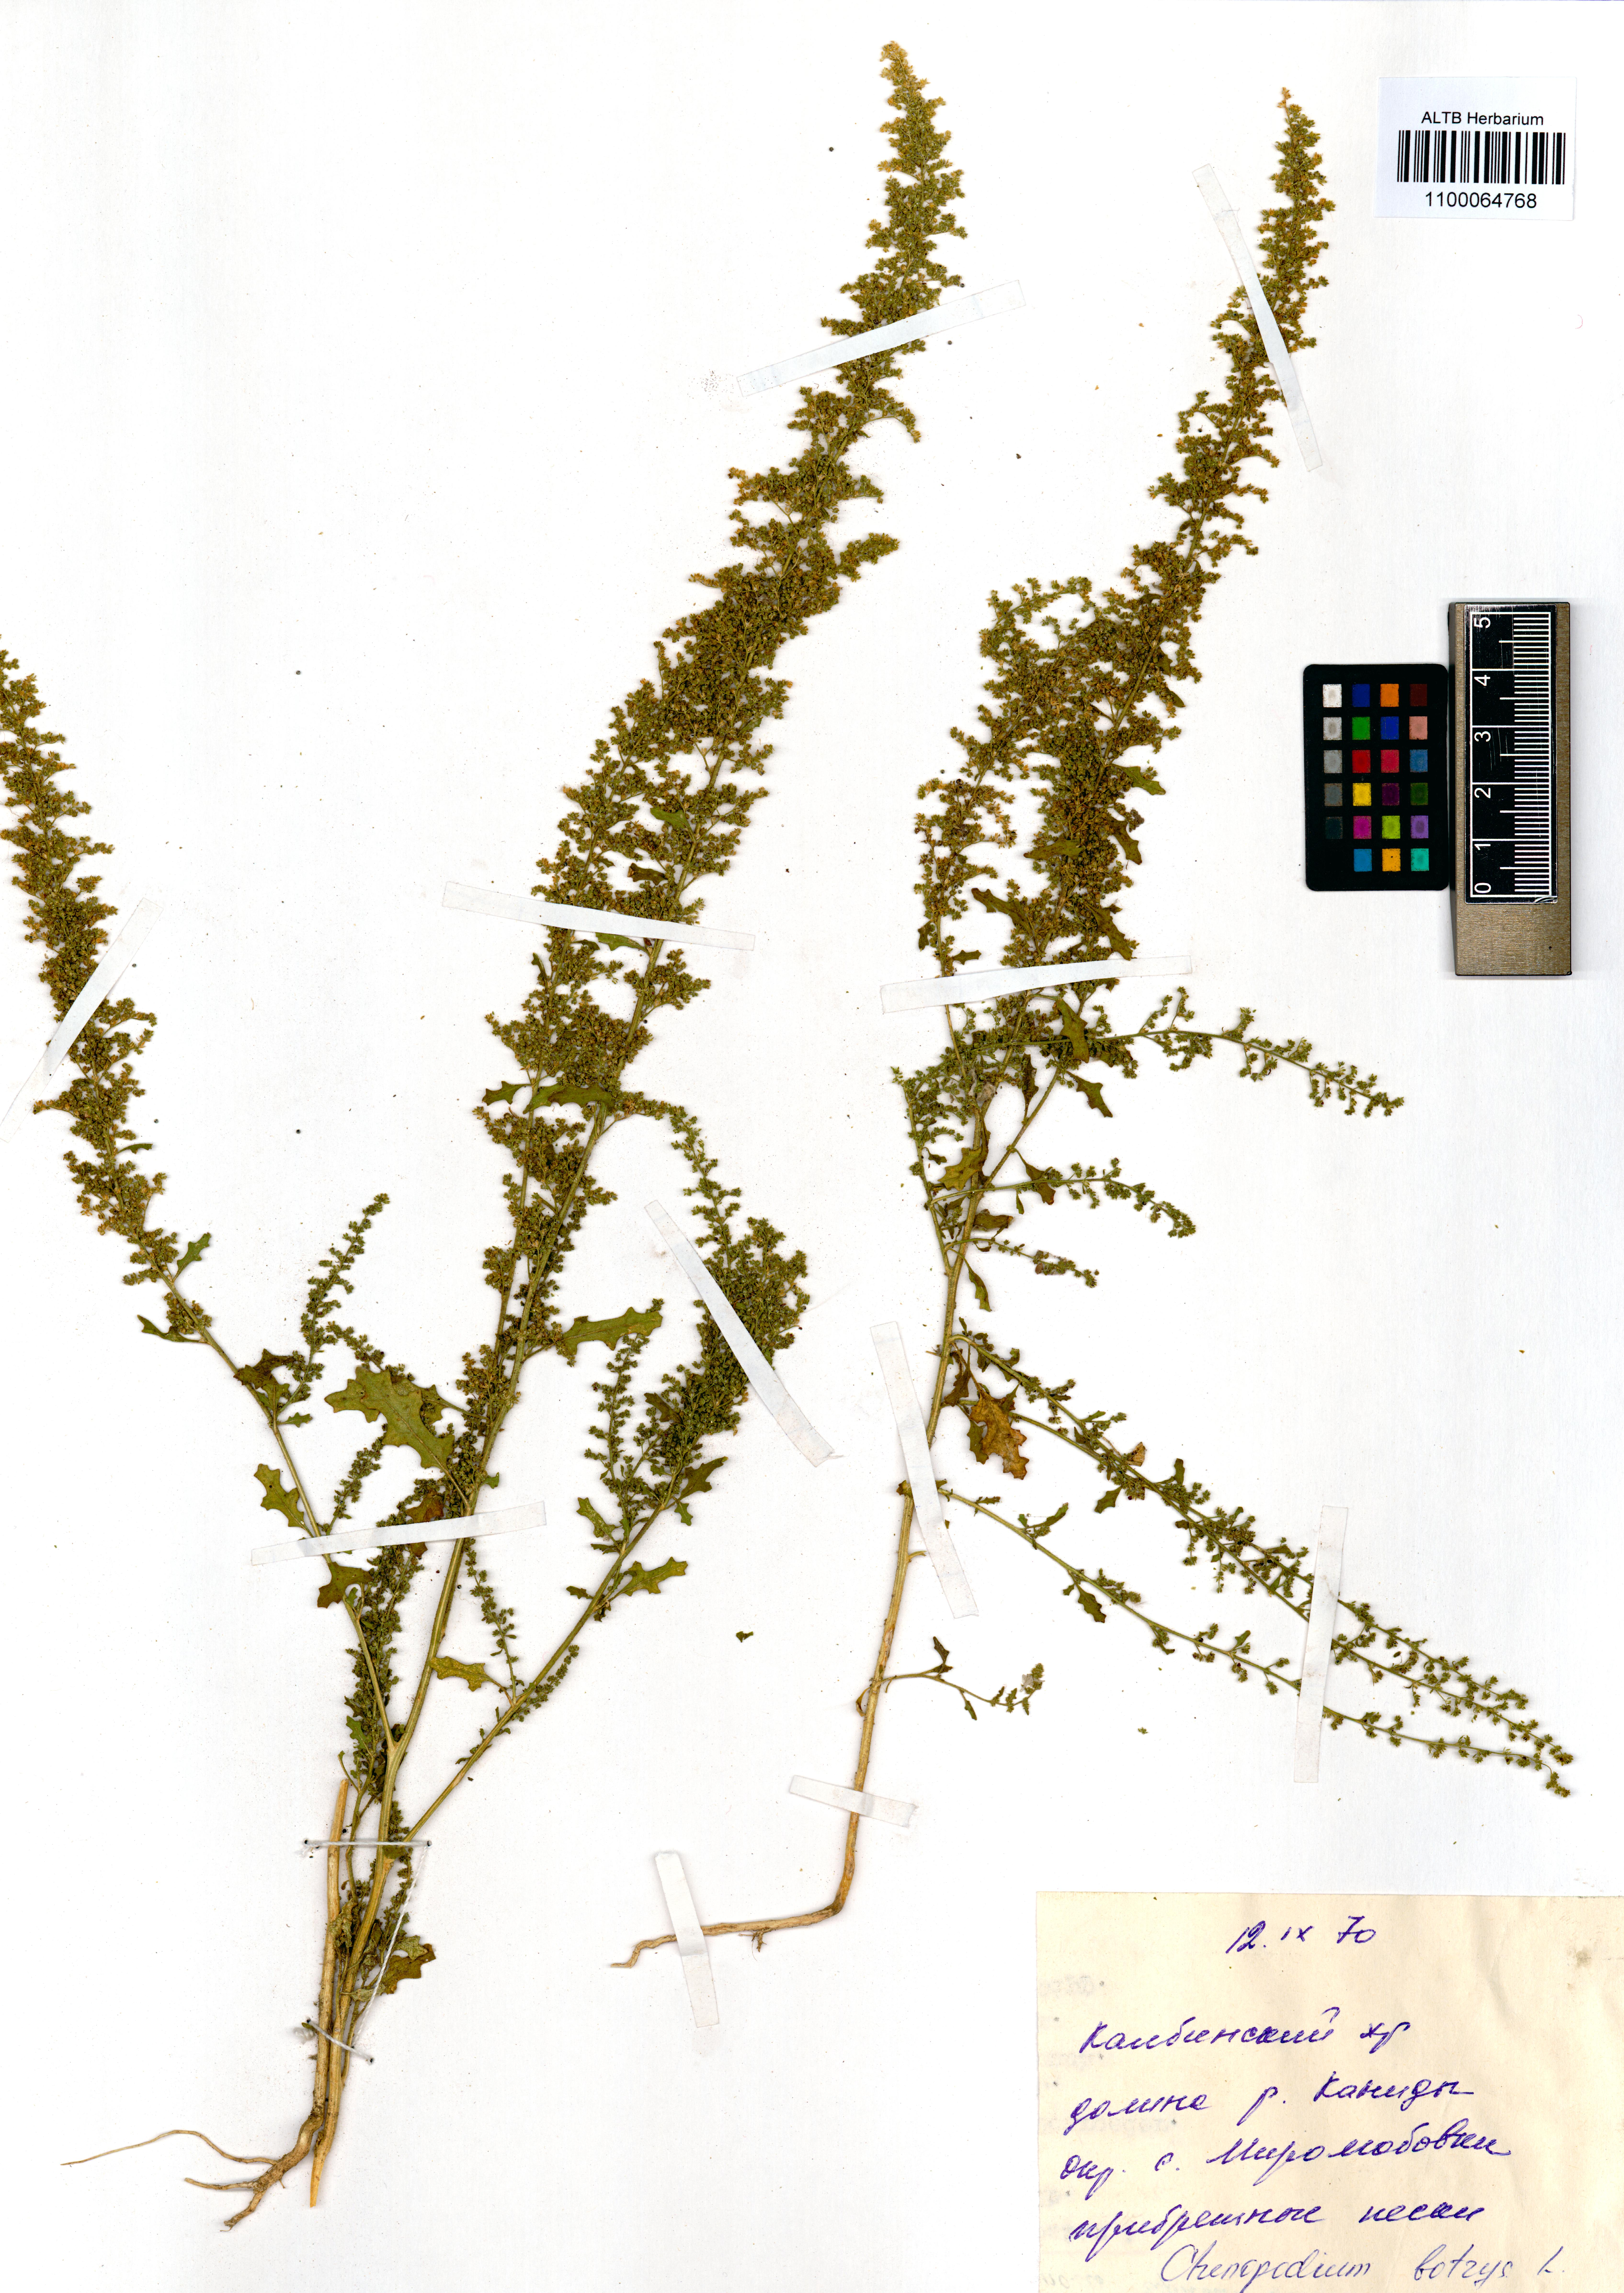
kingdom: Plantae
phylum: Tracheophyta
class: Magnoliopsida
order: Caryophyllales
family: Amaranthaceae
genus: Dysphania
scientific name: Dysphania botrys
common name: Feather-geranium
